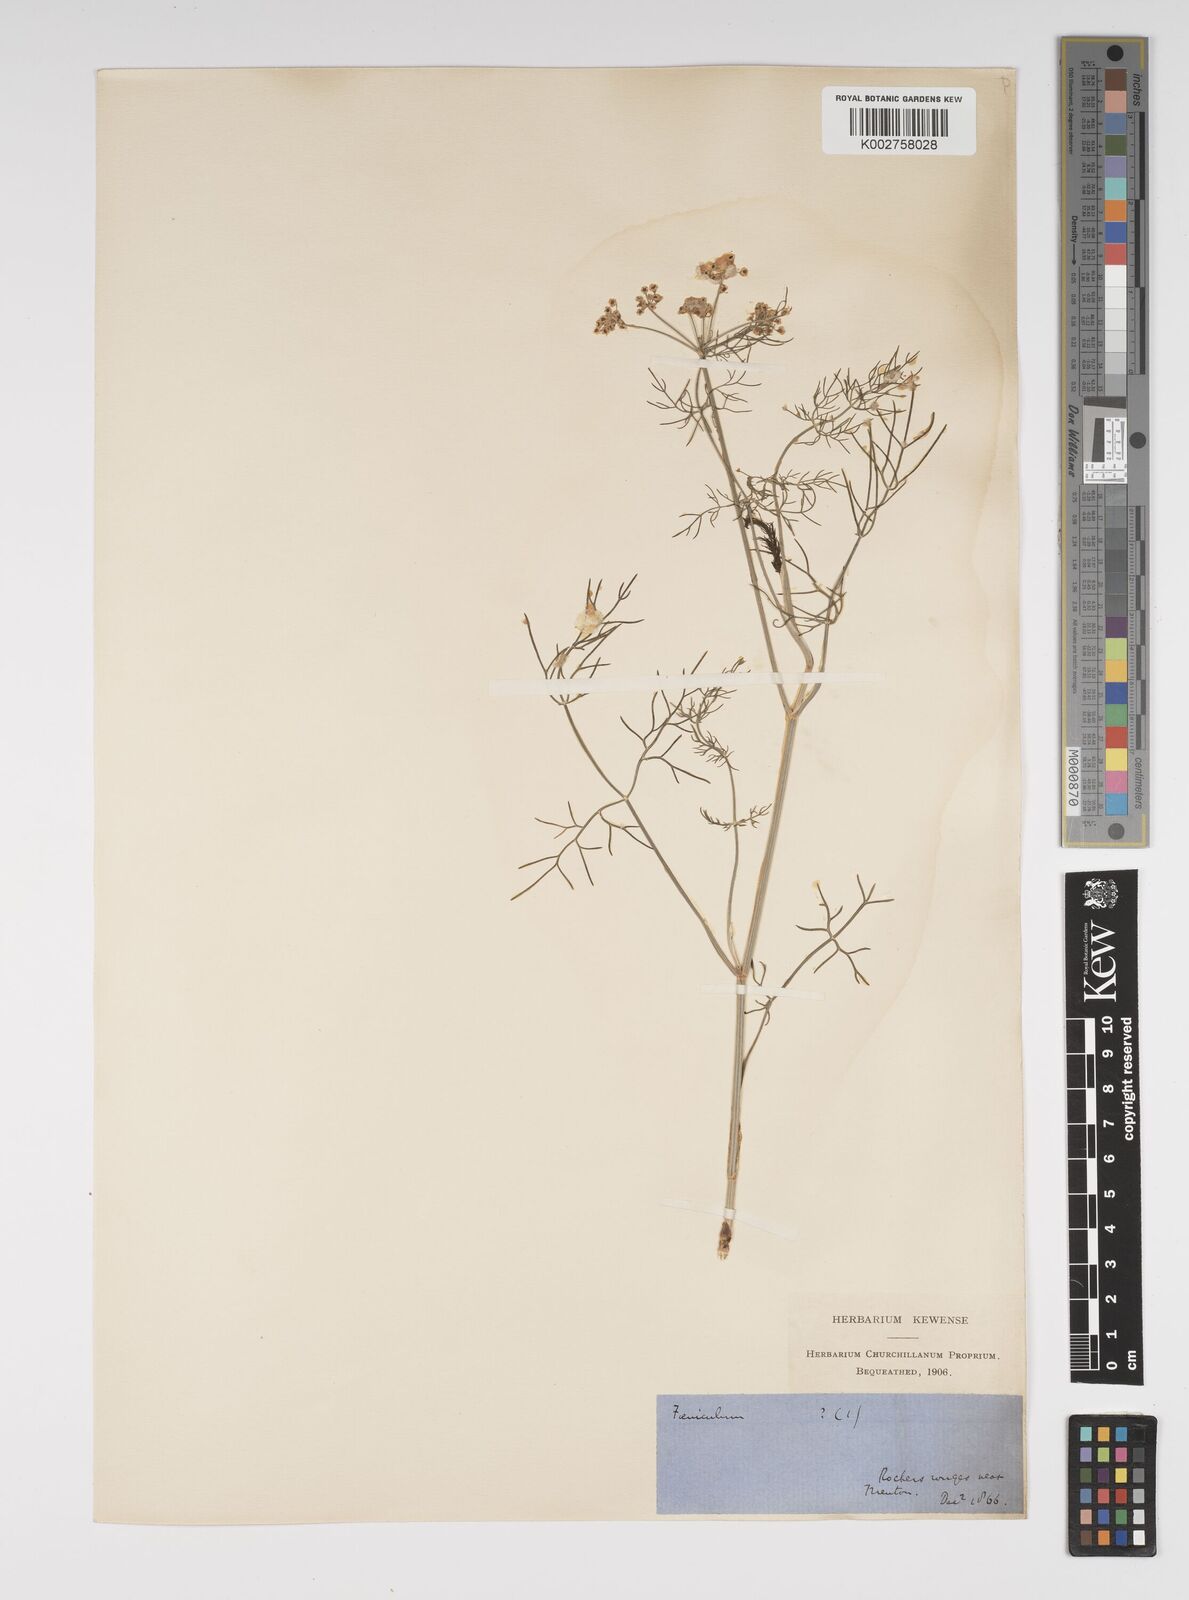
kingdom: Plantae
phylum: Tracheophyta
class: Magnoliopsida
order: Apiales
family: Apiaceae
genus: Foeniculum
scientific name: Foeniculum vulgare
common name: Fennel
